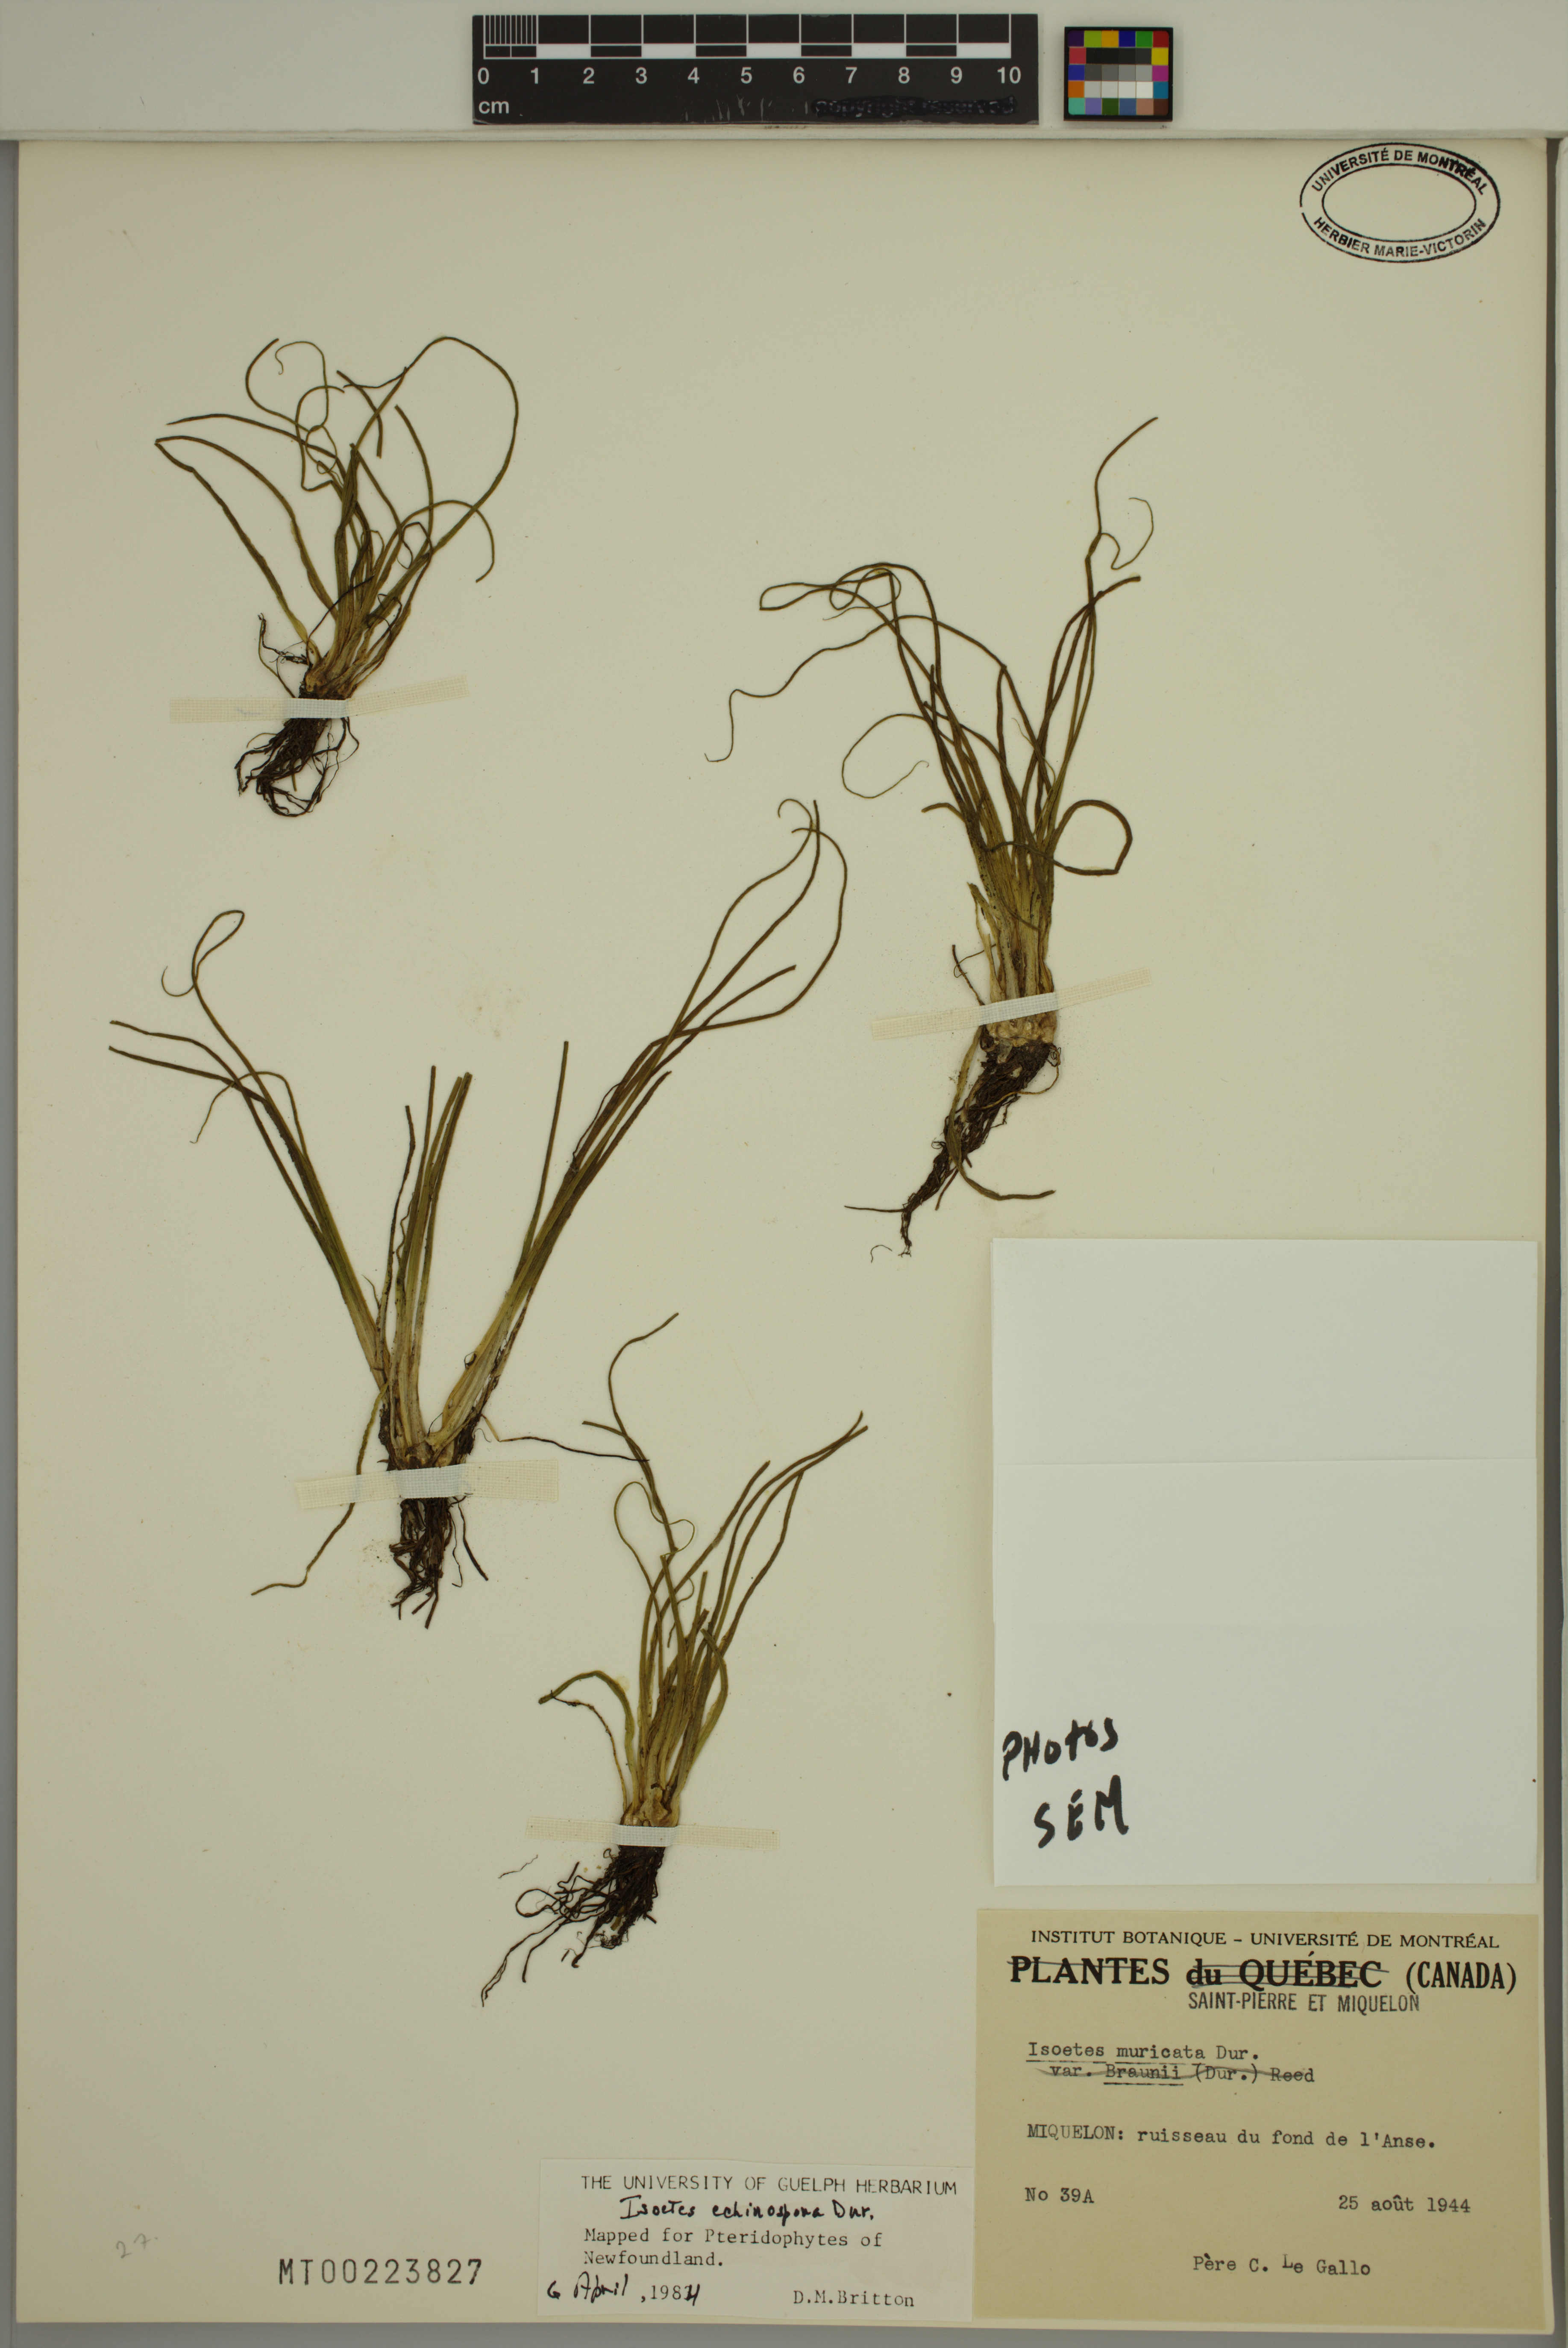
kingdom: Plantae
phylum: Tracheophyta
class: Lycopodiopsida
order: Isoetales
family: Isoetaceae
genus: Isoetes
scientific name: Isoetes echinospora
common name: Spring quillwort
